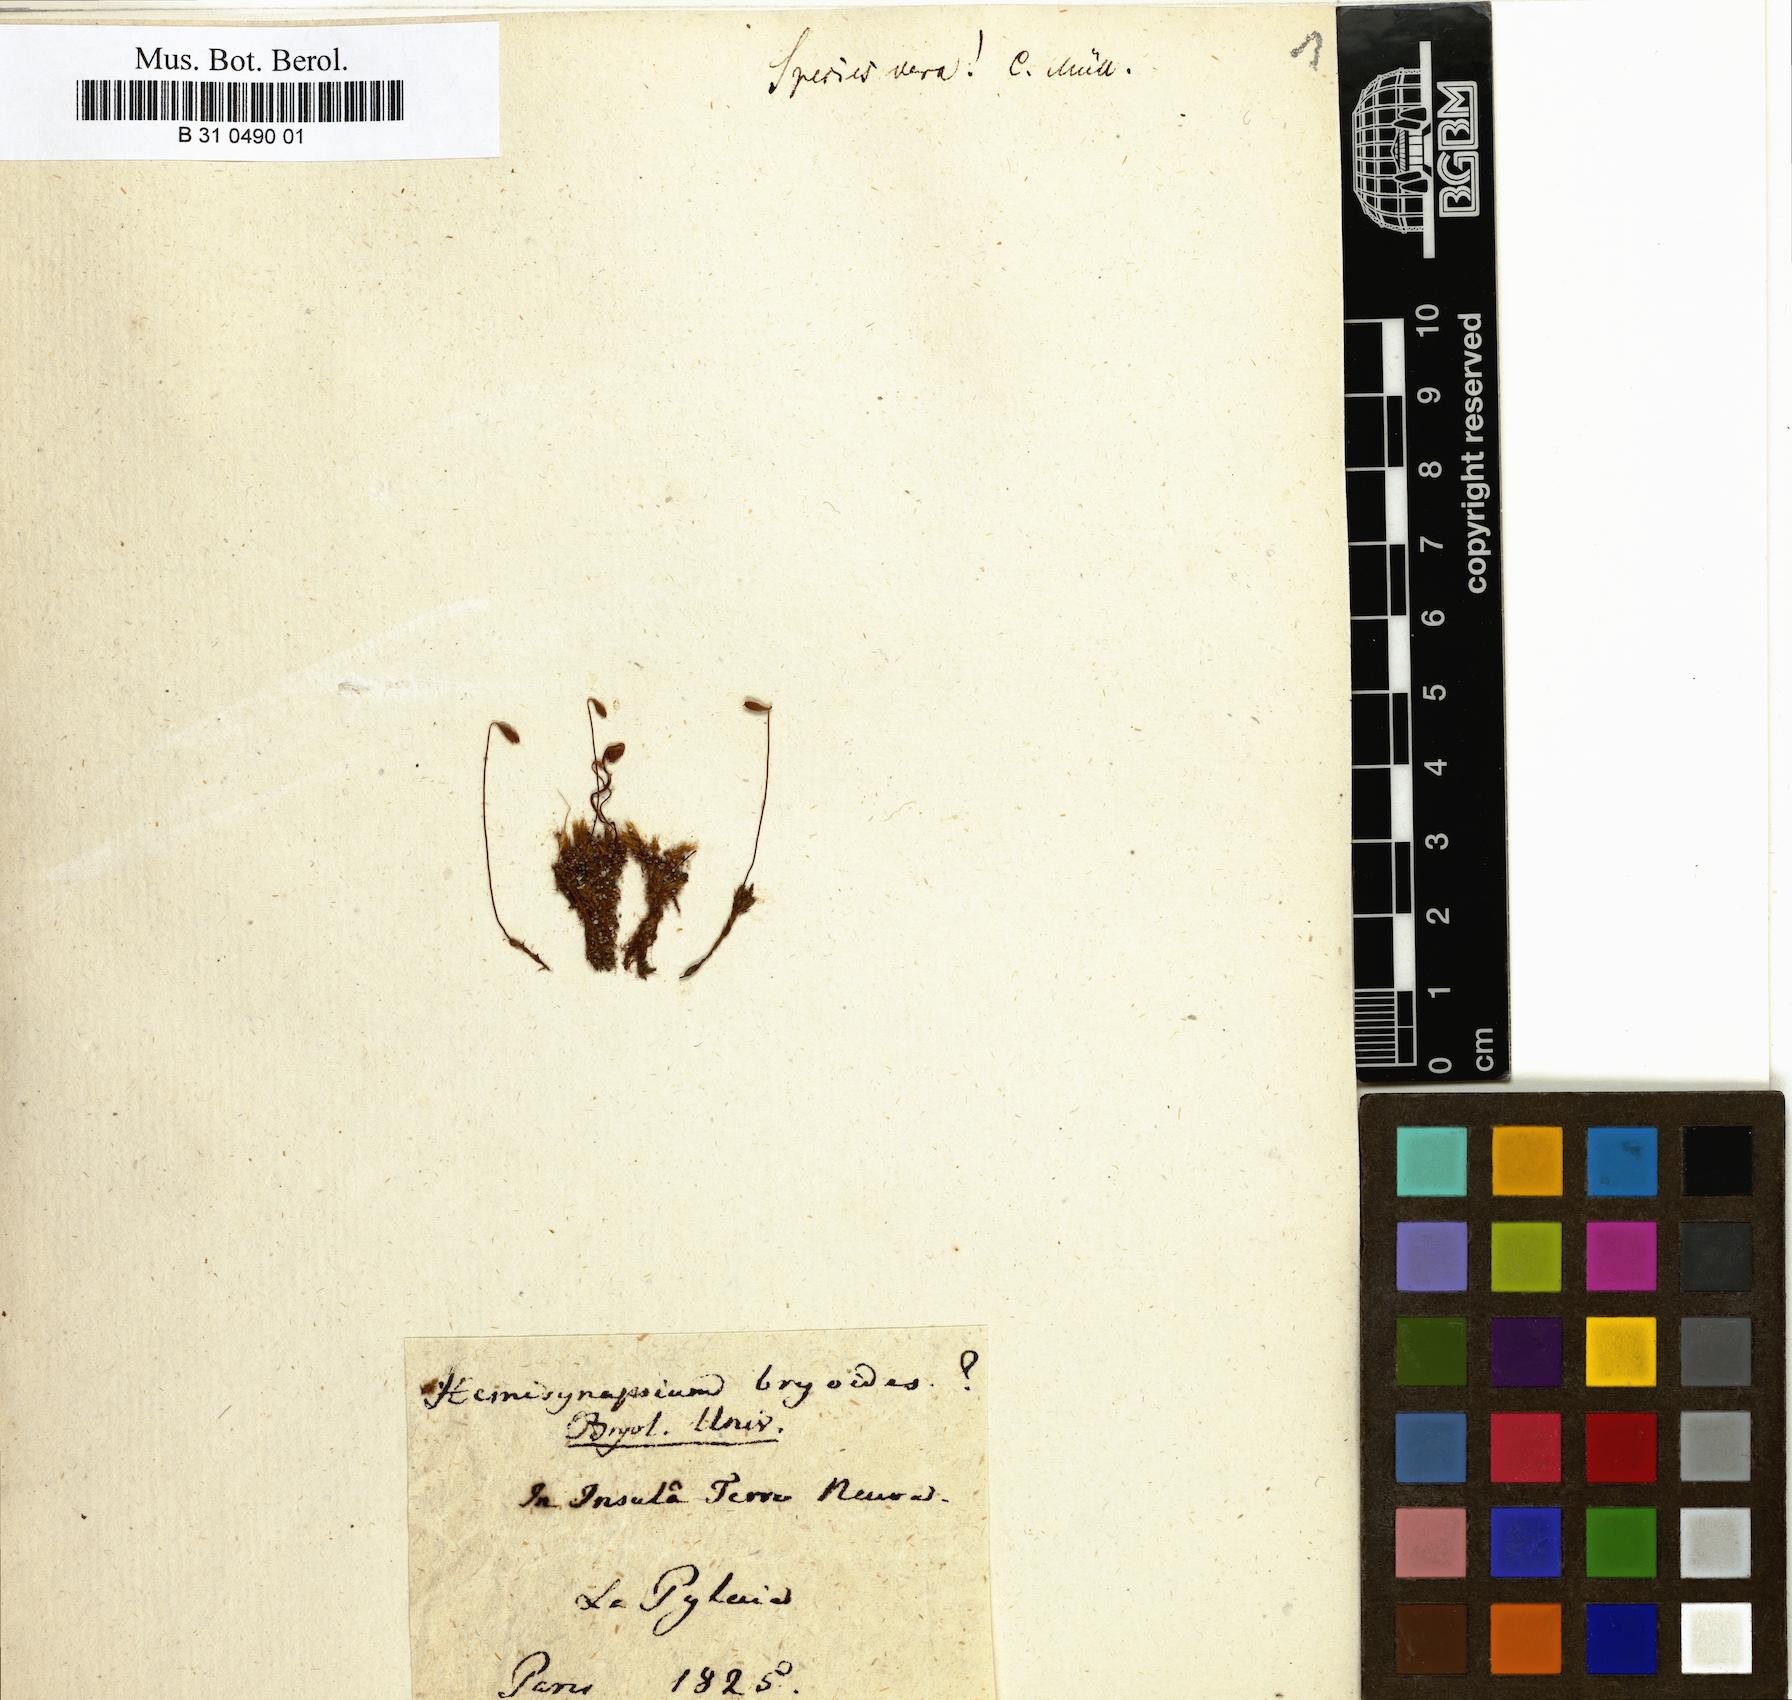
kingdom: Plantae
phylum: Bryophyta
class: Bryopsida
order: Bryales
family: Bryaceae
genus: Ptychostomum
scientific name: Ptychostomum bryoides
